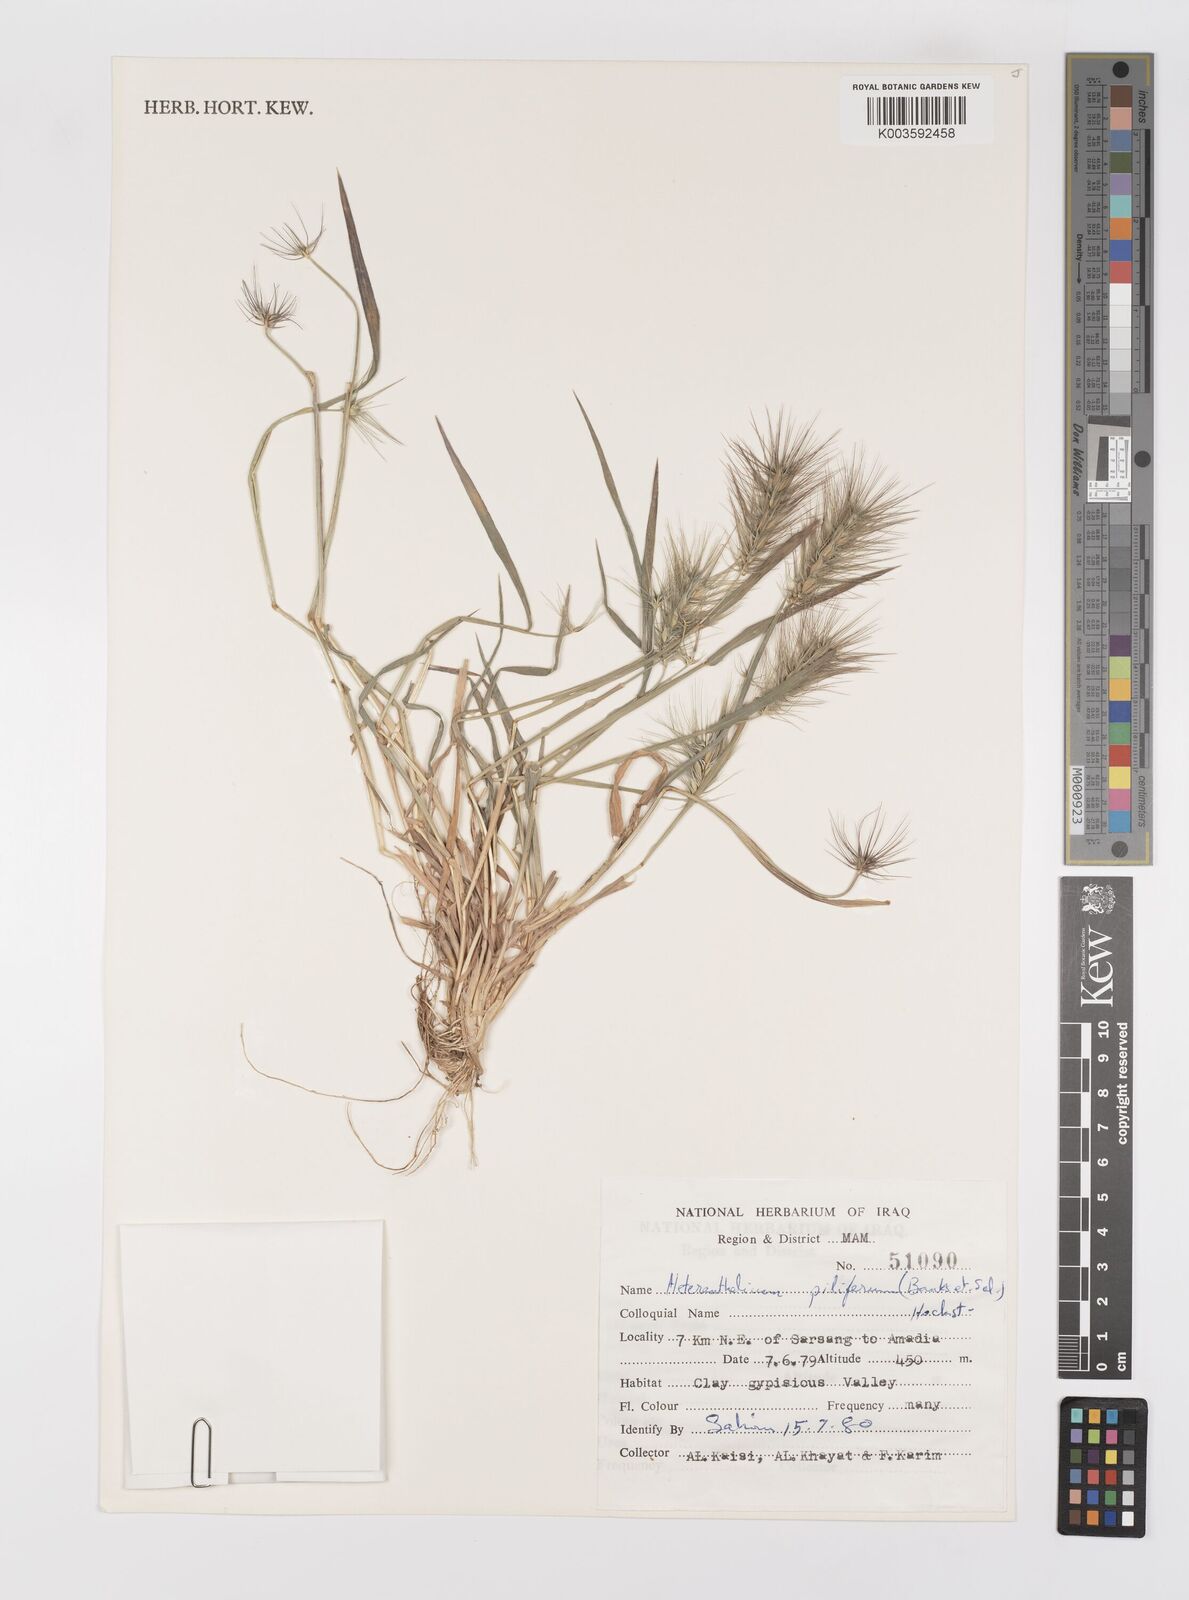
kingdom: Plantae
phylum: Tracheophyta
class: Liliopsida
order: Poales
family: Poaceae
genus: Heteranthelium
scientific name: Heteranthelium piliferum
